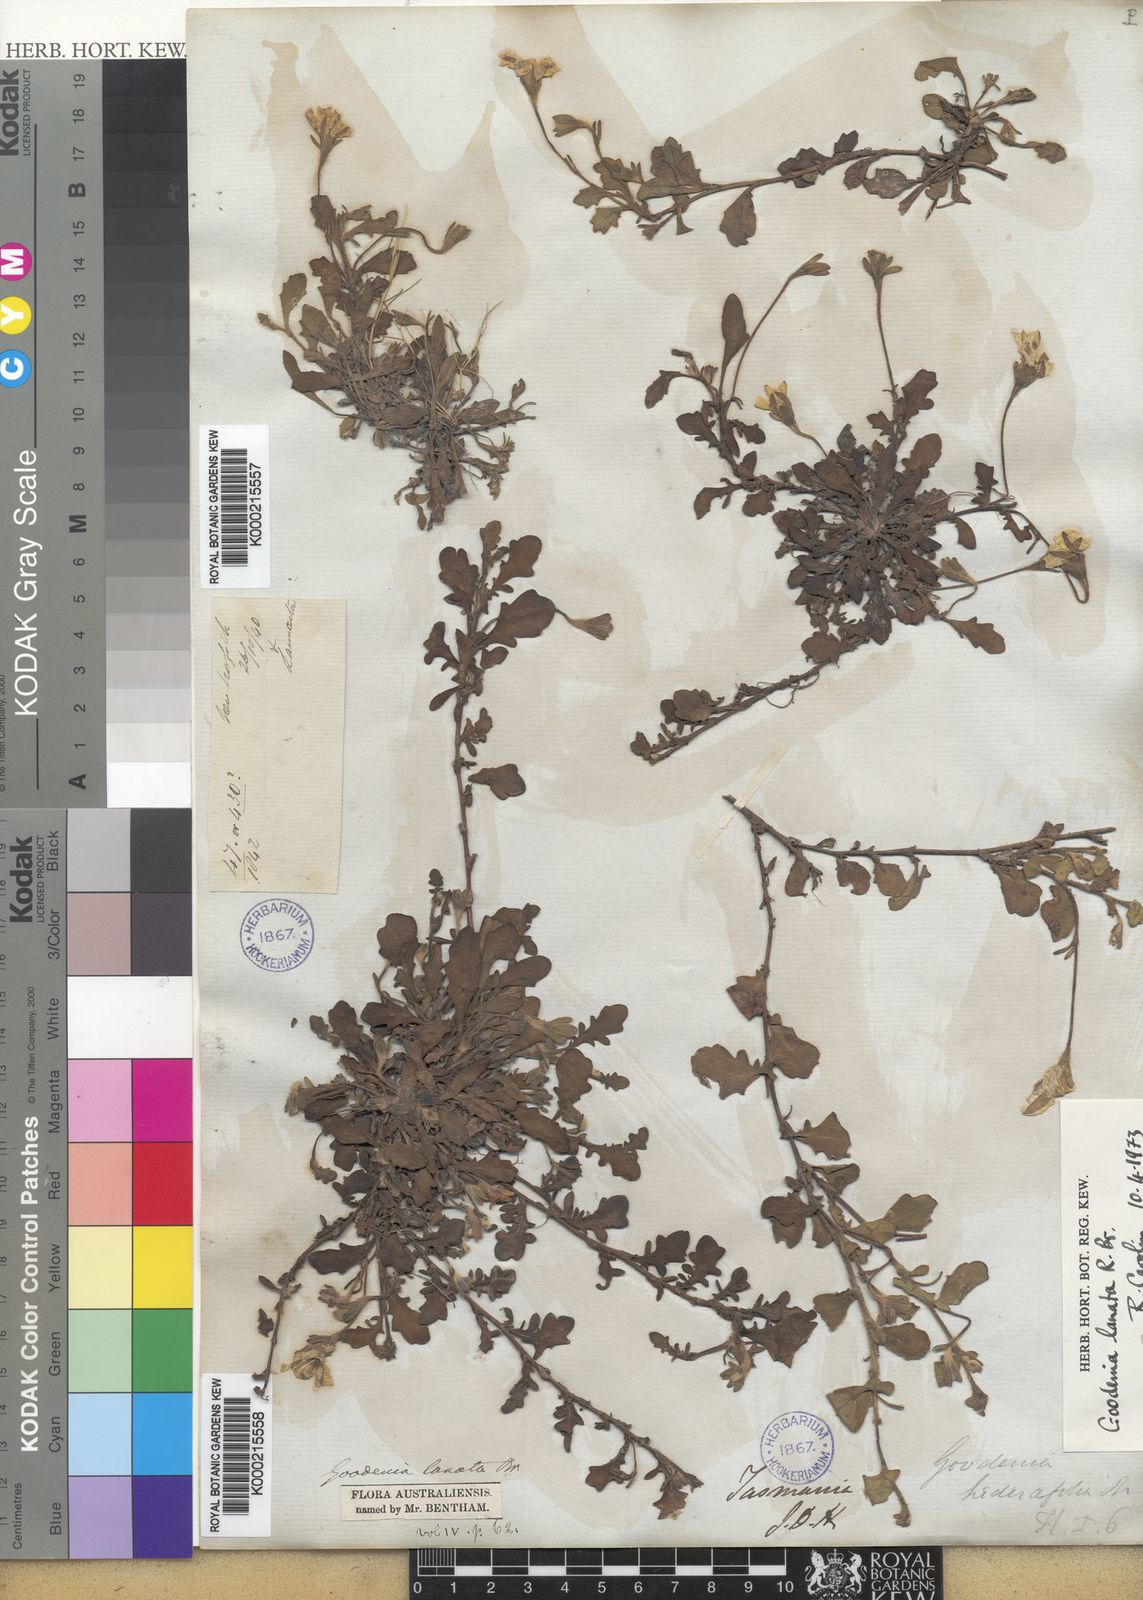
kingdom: Plantae
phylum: Tracheophyta
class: Magnoliopsida
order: Asterales
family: Goodeniaceae
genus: Goodenia
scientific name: Goodenia lanata
